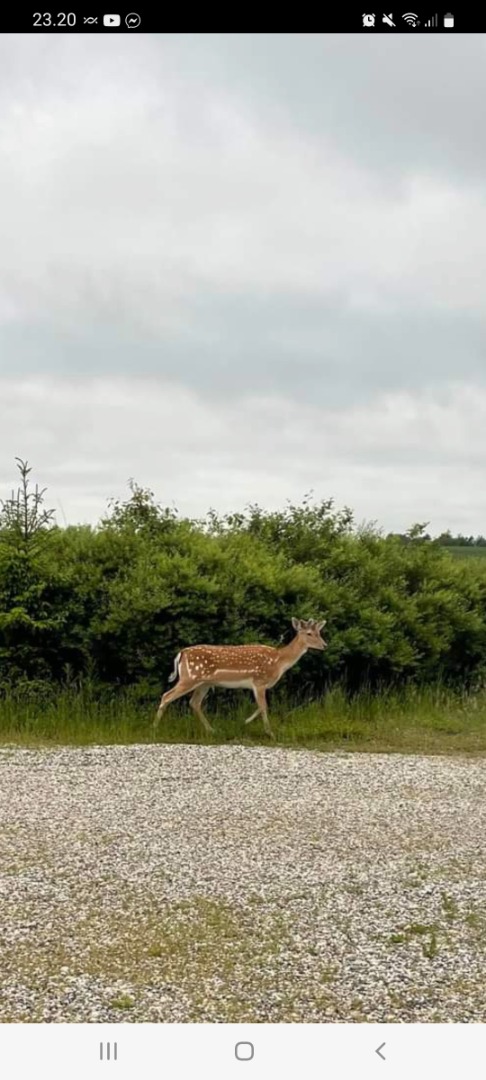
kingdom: Animalia
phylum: Chordata
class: Mammalia
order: Artiodactyla
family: Cervidae
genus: Dama
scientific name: Dama dama
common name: Dådyr
